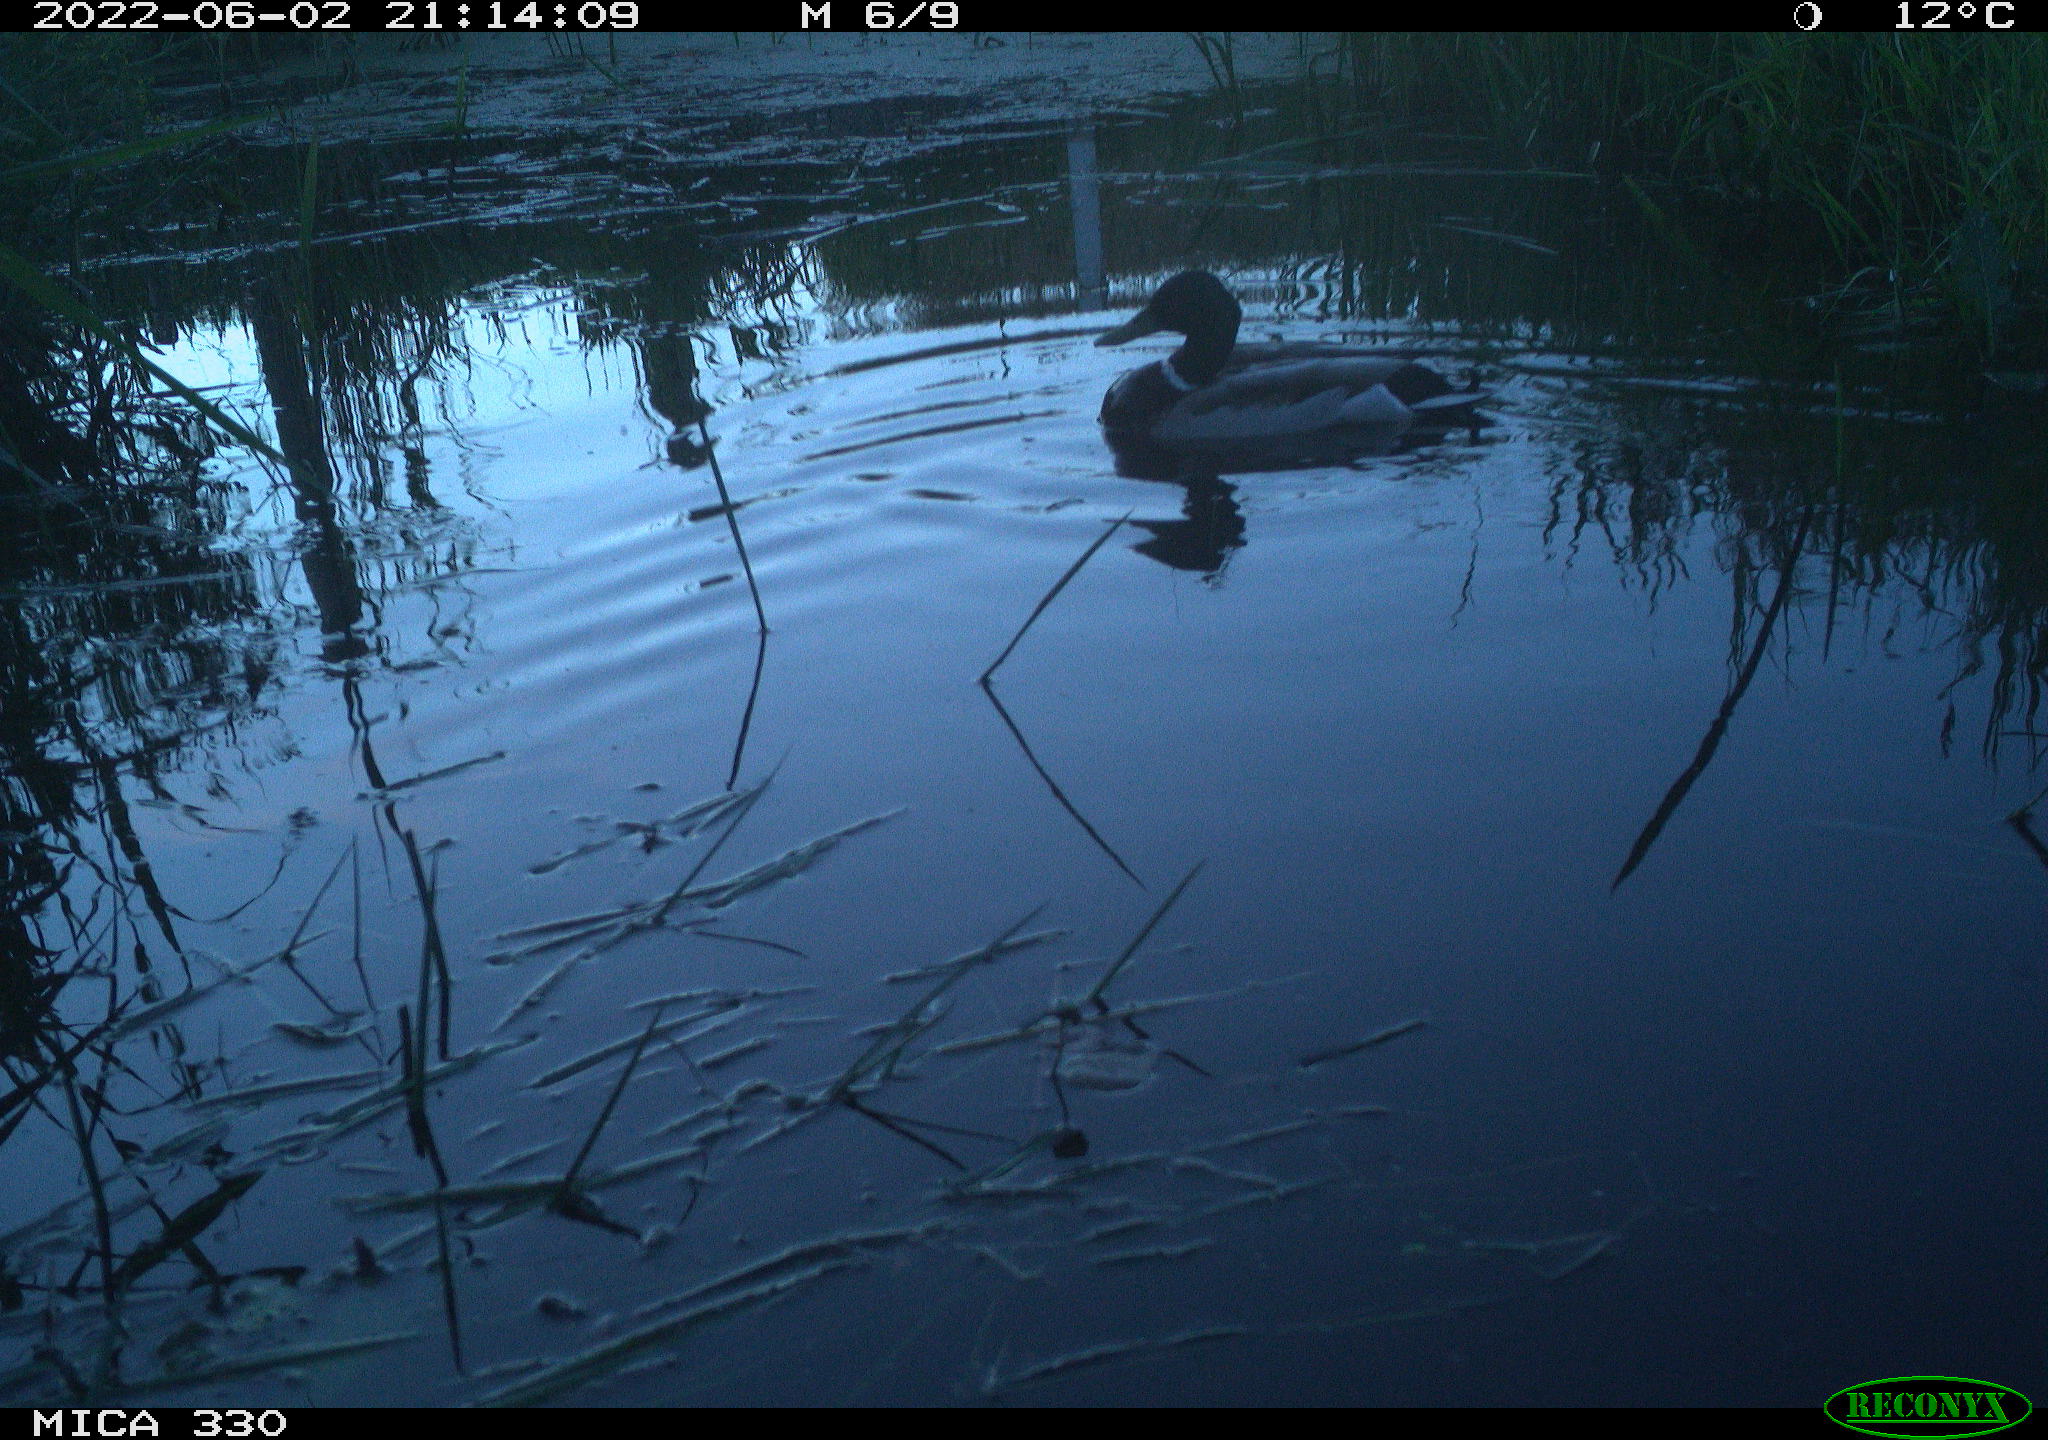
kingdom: Animalia
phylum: Chordata
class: Aves
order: Anseriformes
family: Anatidae
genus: Anas
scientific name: Anas platyrhynchos
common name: Mallard
